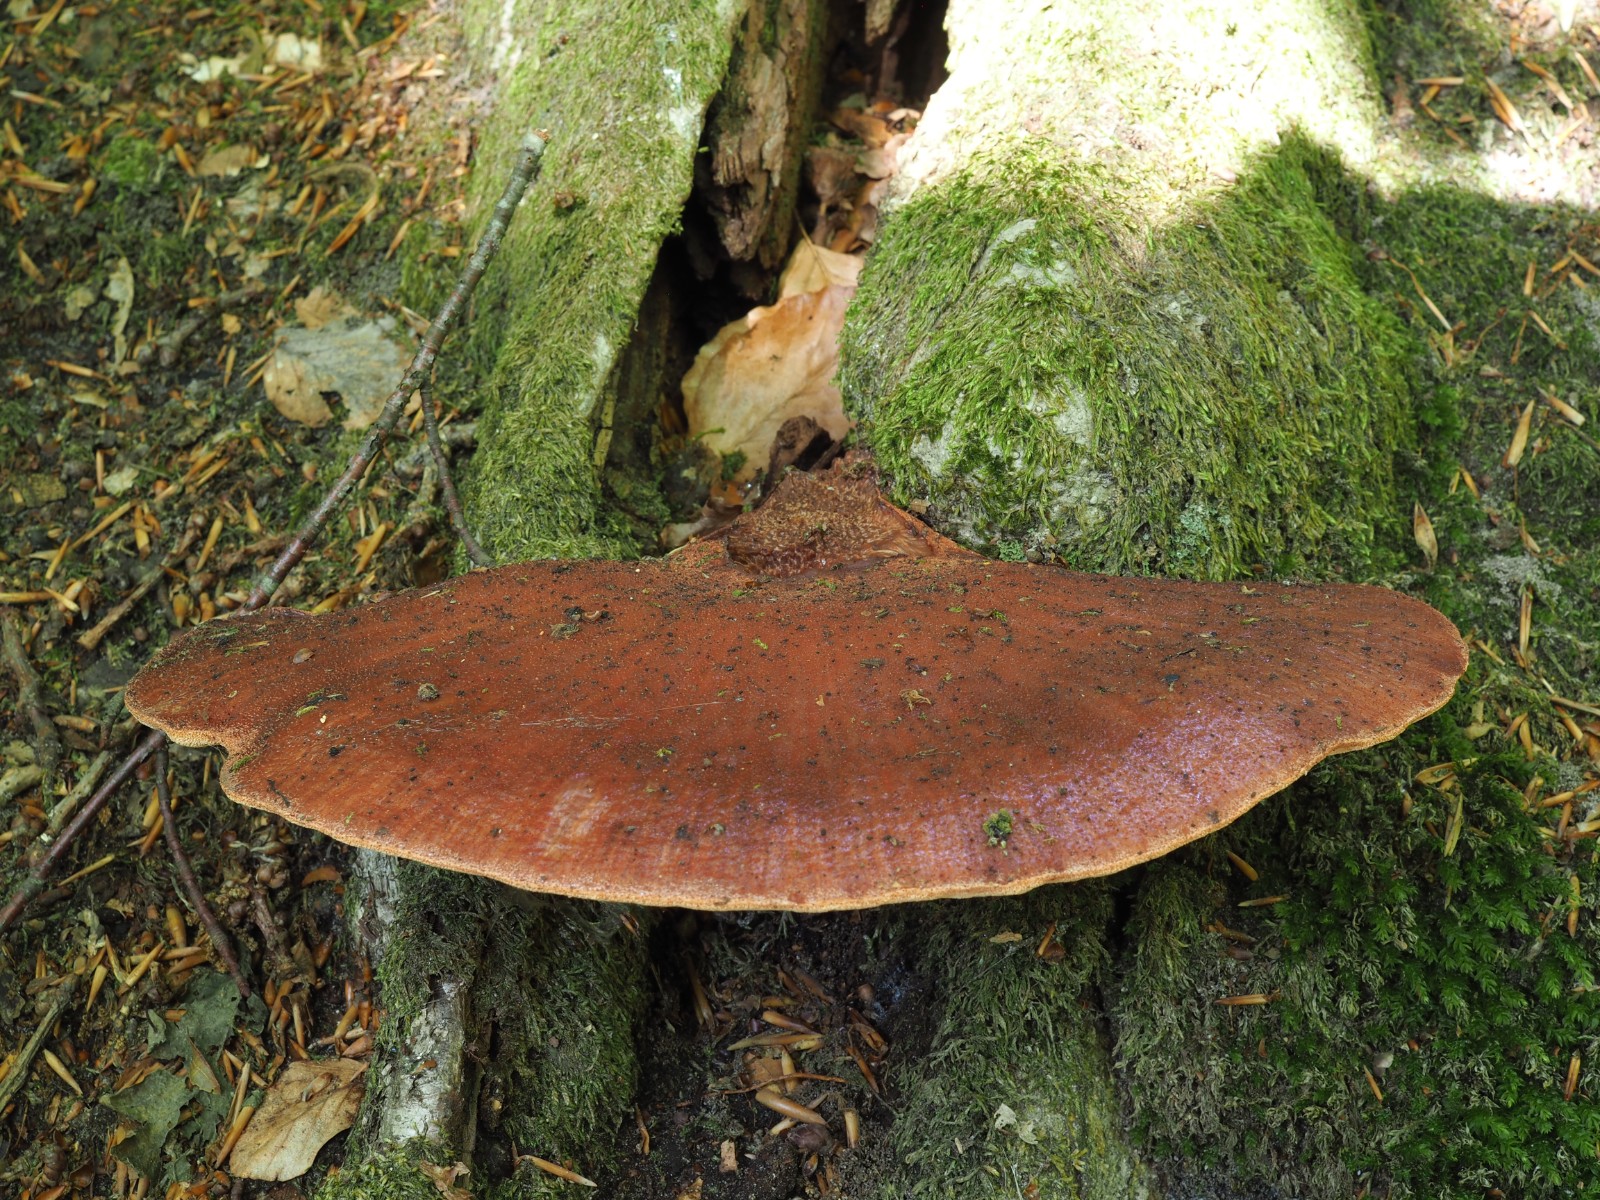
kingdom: Fungi
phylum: Basidiomycota
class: Agaricomycetes
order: Agaricales
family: Fistulinaceae
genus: Fistulina
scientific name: Fistulina hepatica
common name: oksetunge
